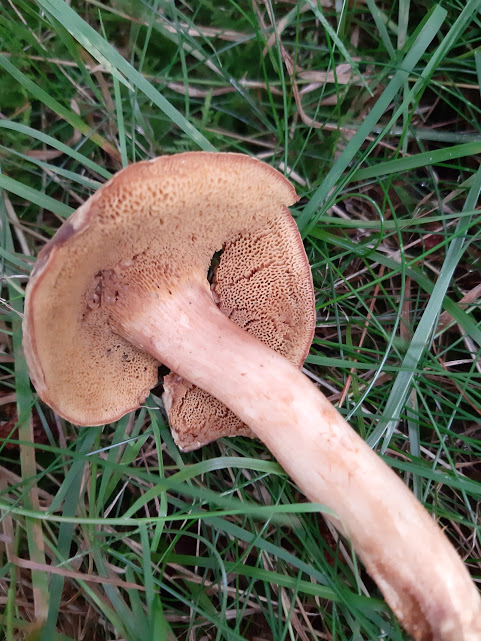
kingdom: Fungi
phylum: Basidiomycota
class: Agaricomycetes
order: Boletales
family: Boletaceae
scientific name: Boletaceae
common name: rørhatfamilien
